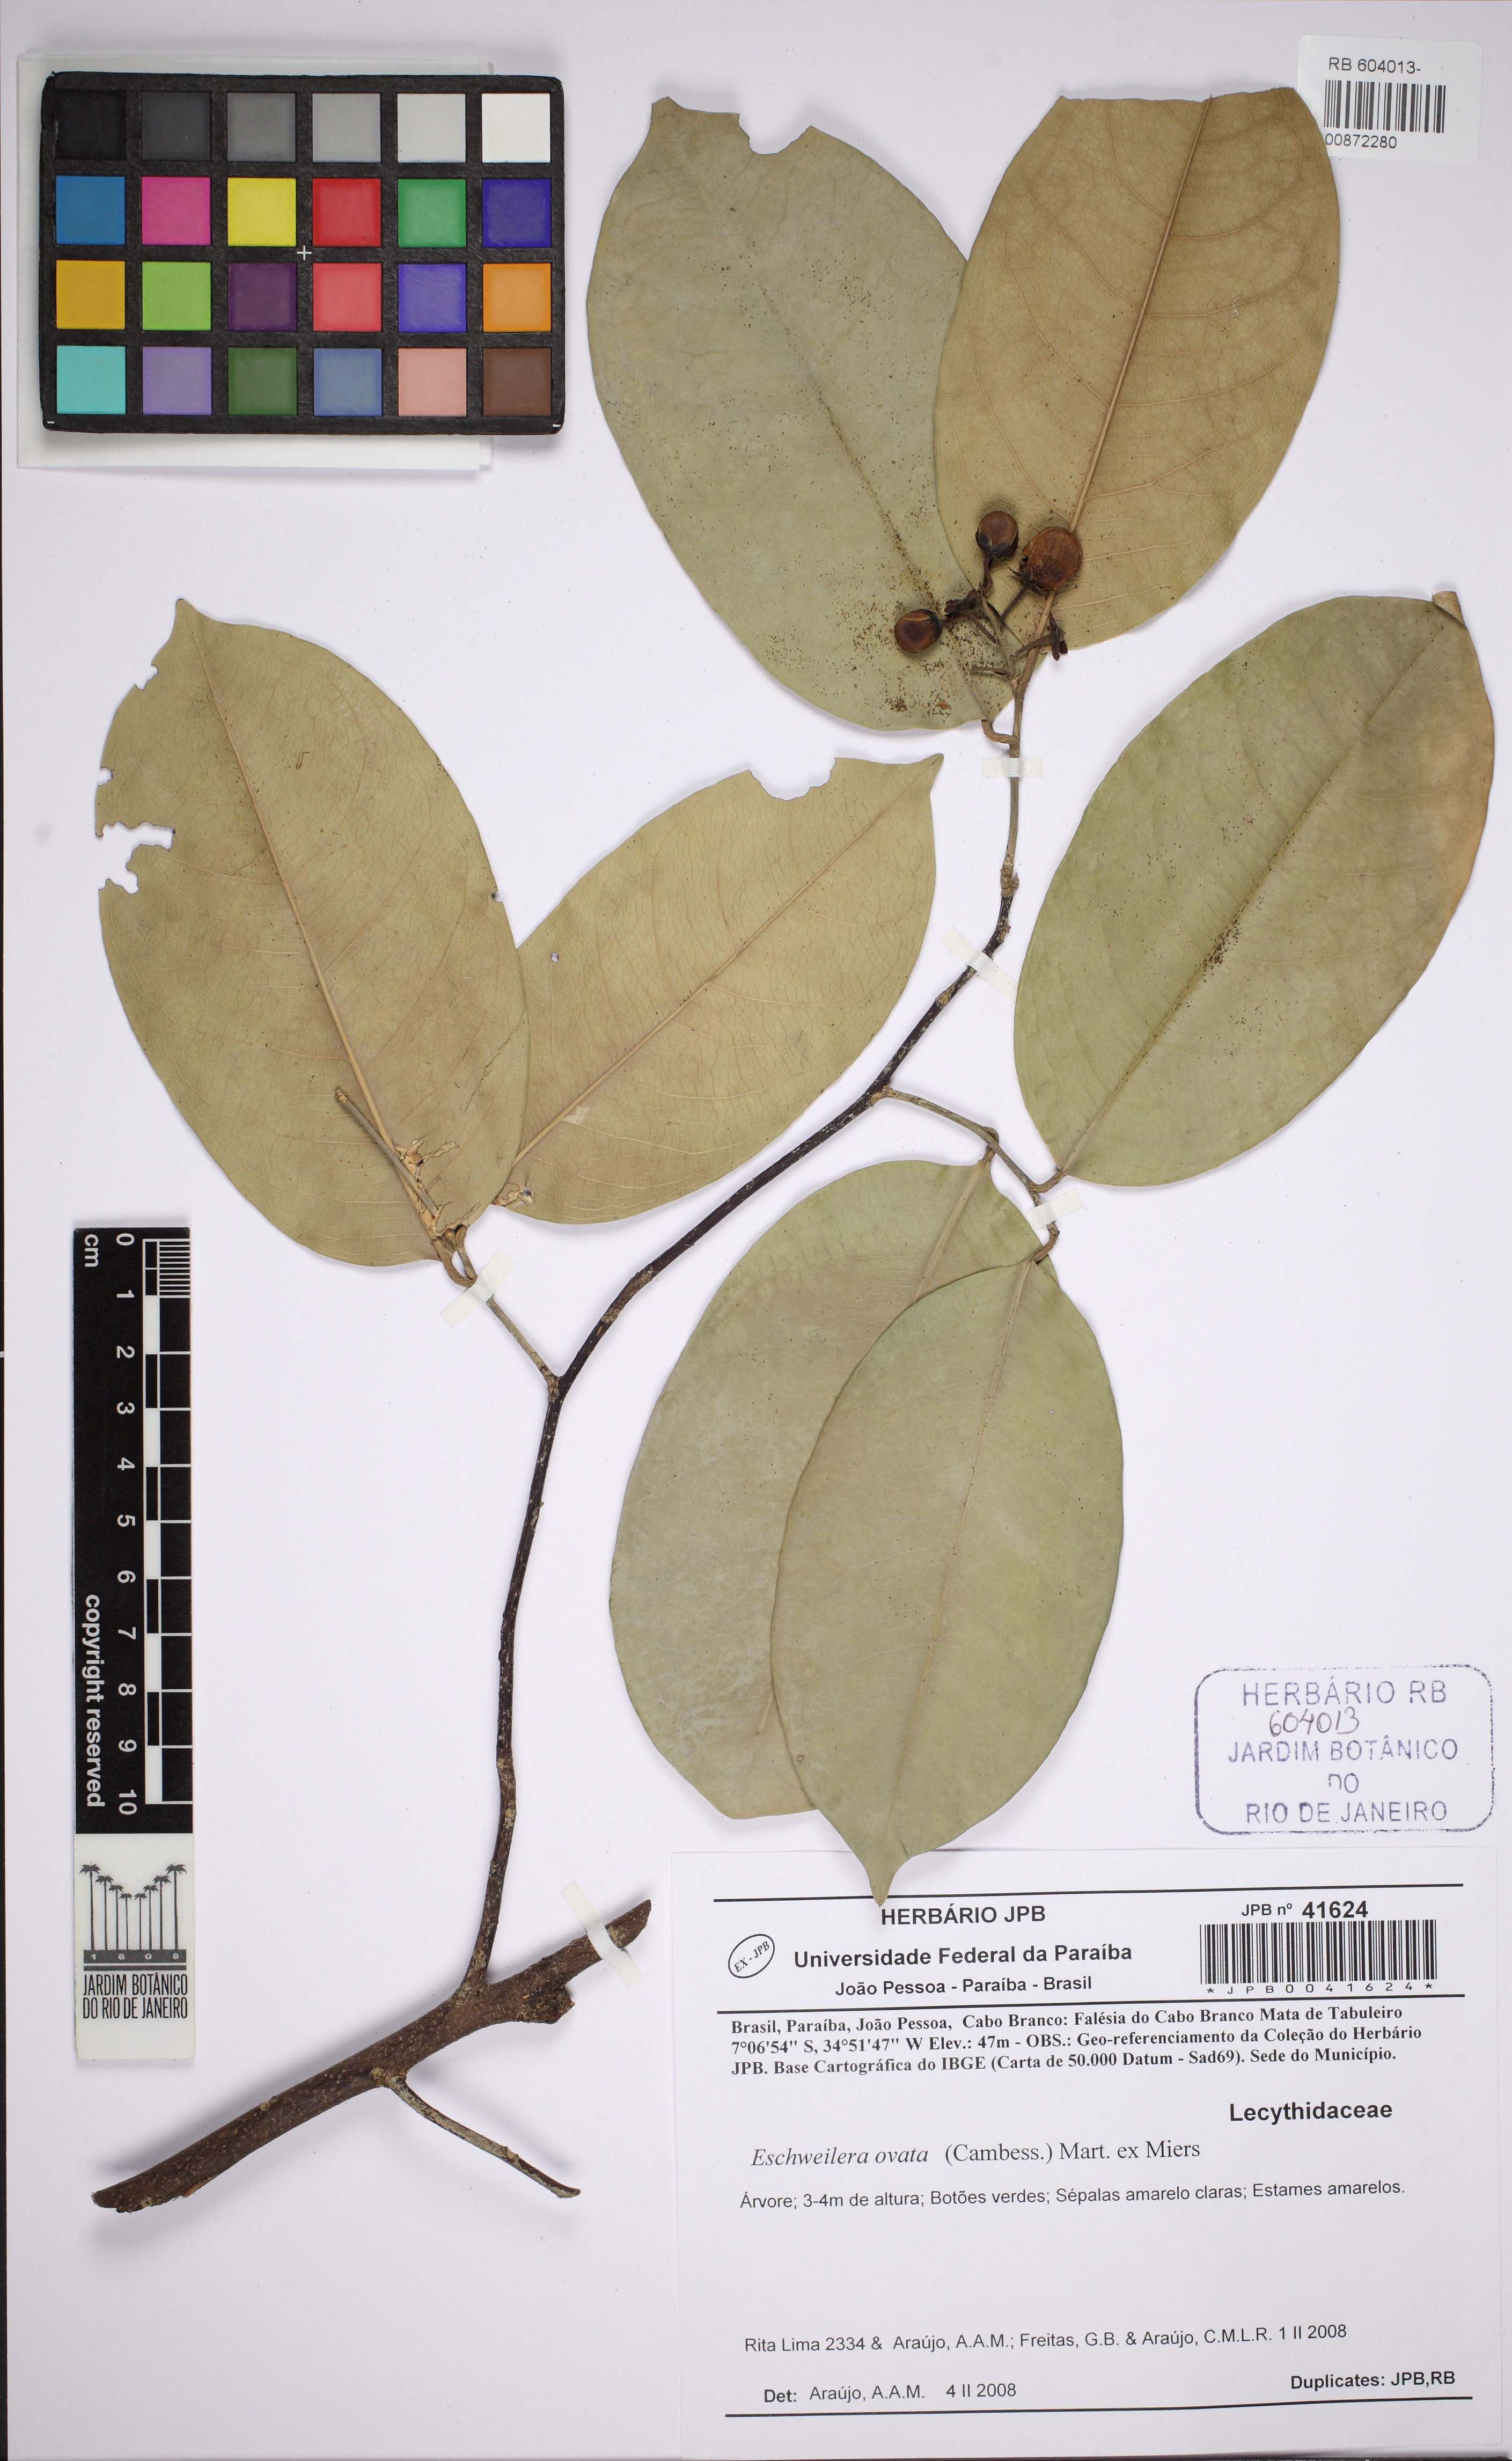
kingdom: Plantae
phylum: Tracheophyta
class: Magnoliopsida
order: Ericales
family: Lecythidaceae
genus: Eschweilera
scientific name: Eschweilera ovata
